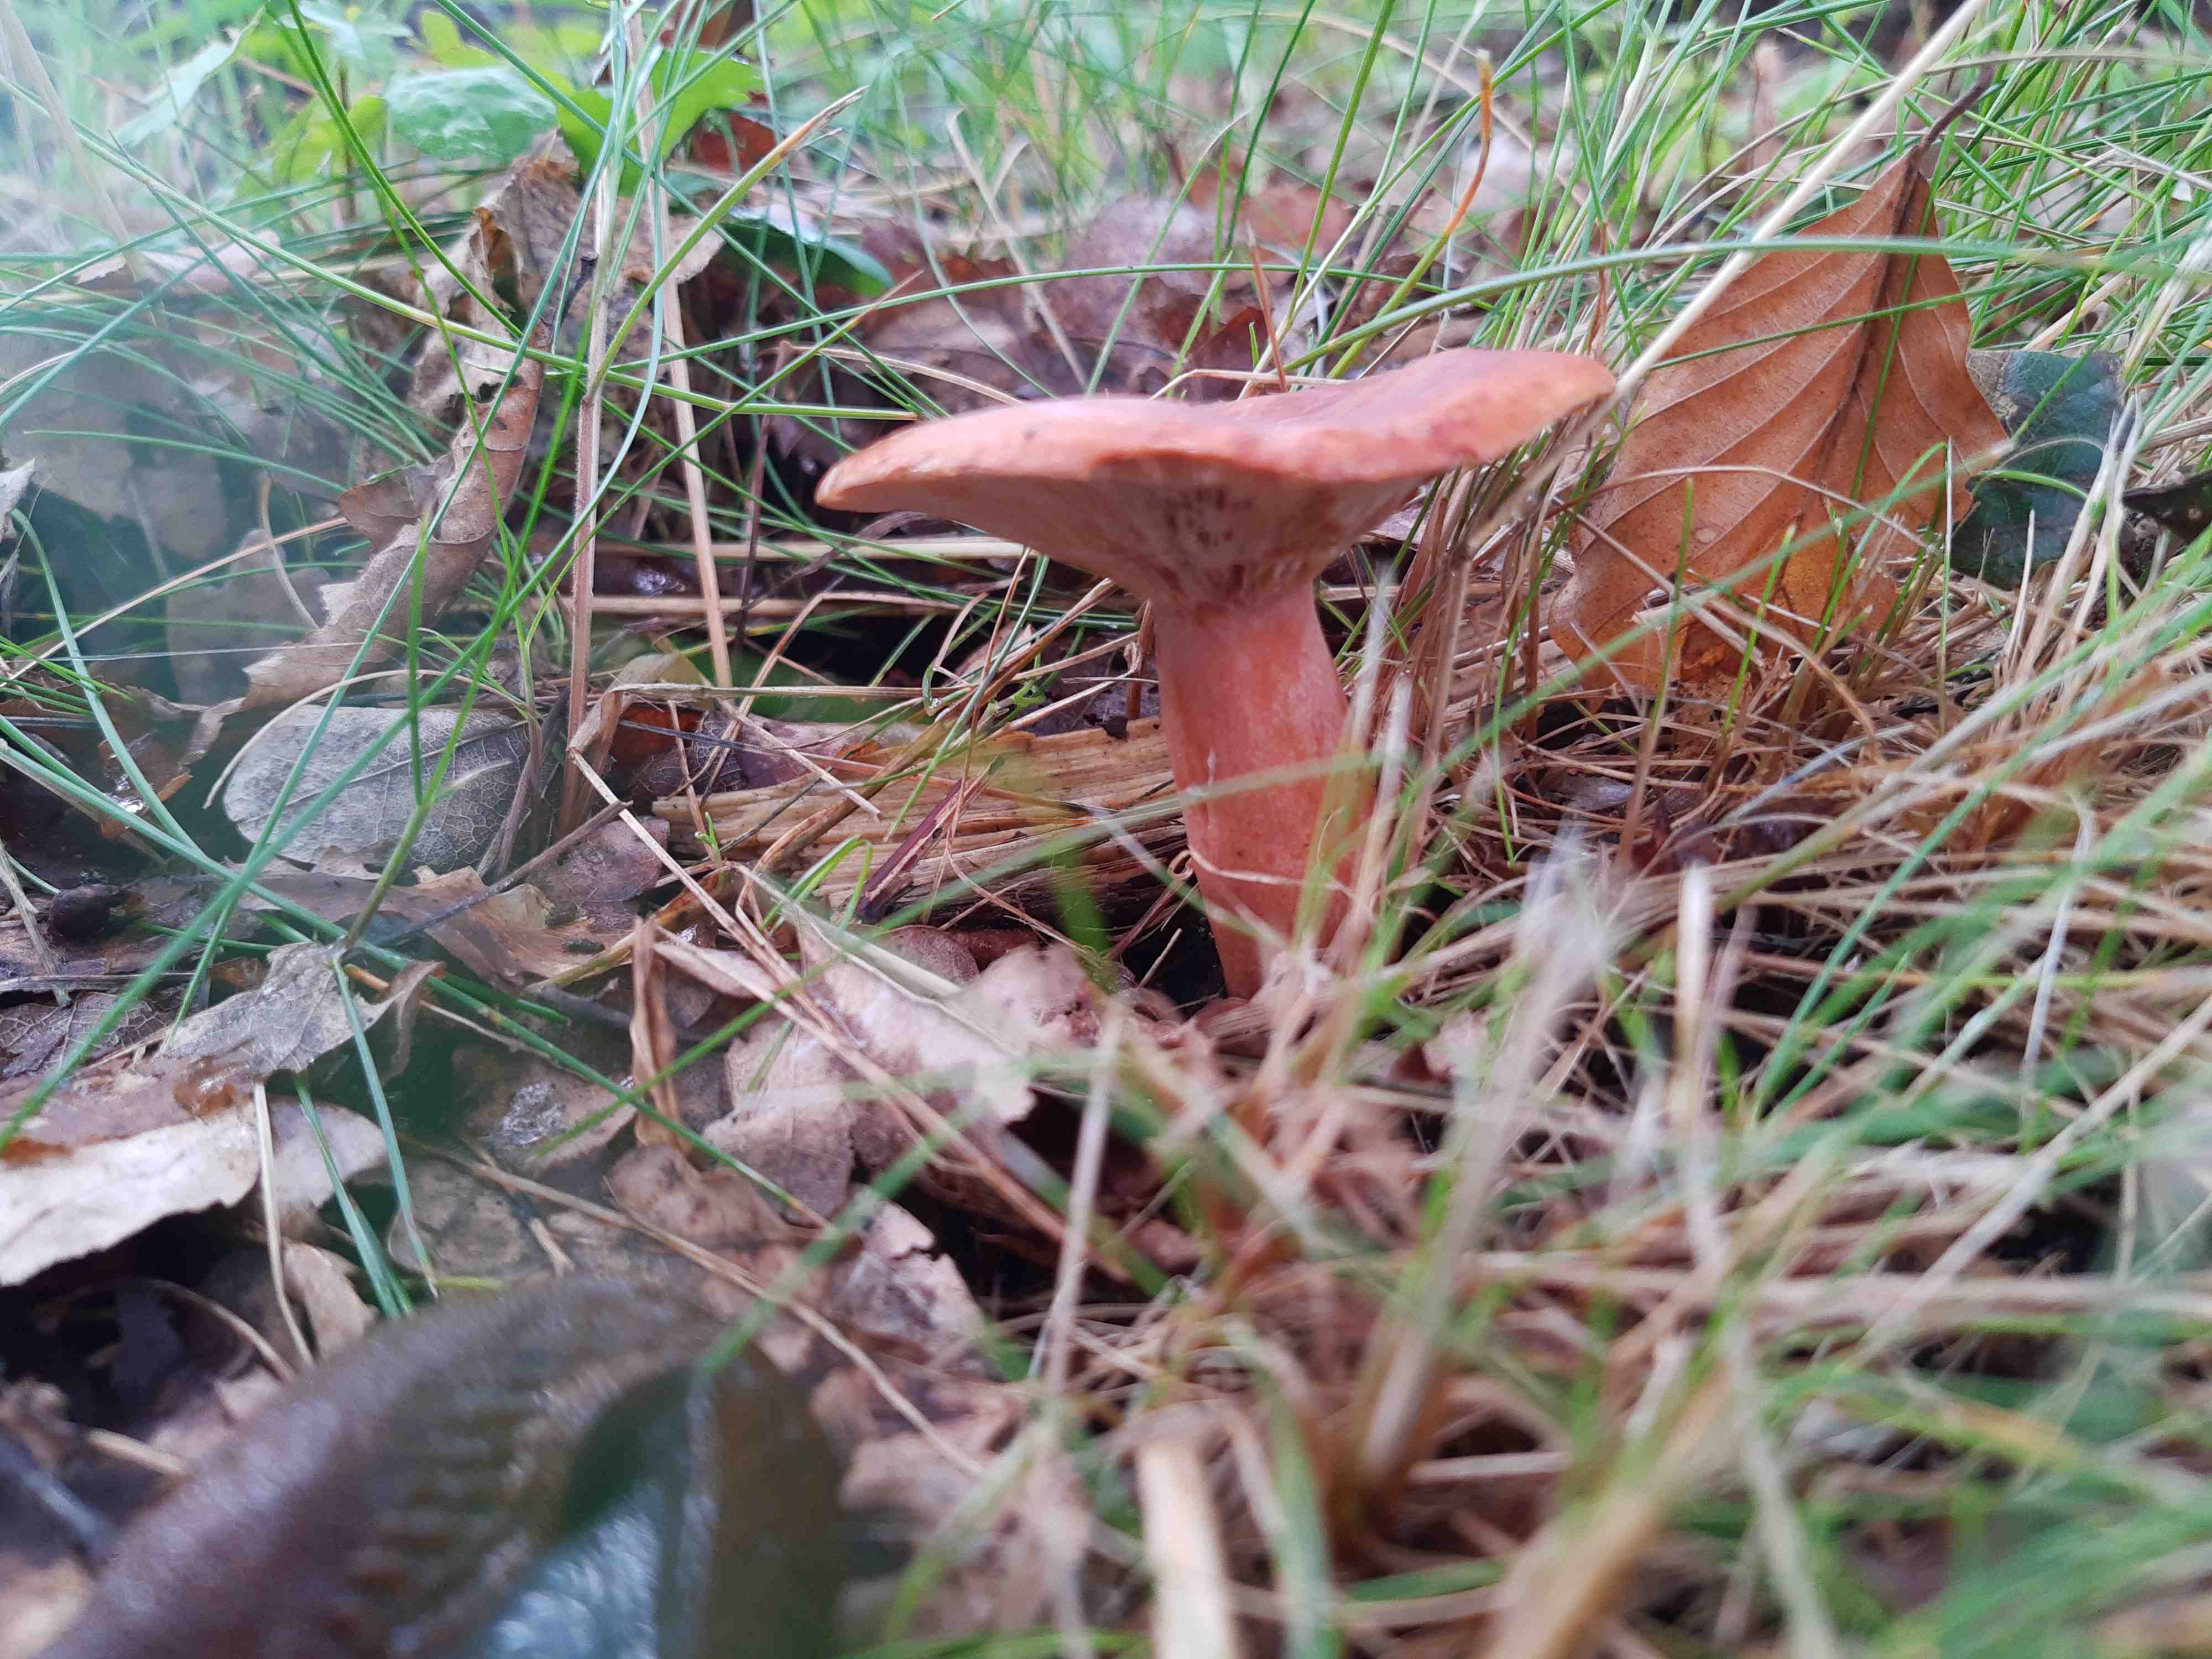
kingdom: Fungi
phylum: Basidiomycota
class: Agaricomycetes
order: Russulales
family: Russulaceae
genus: Lactarius
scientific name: Lactarius fulvissimus
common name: ræve-mælkehat
